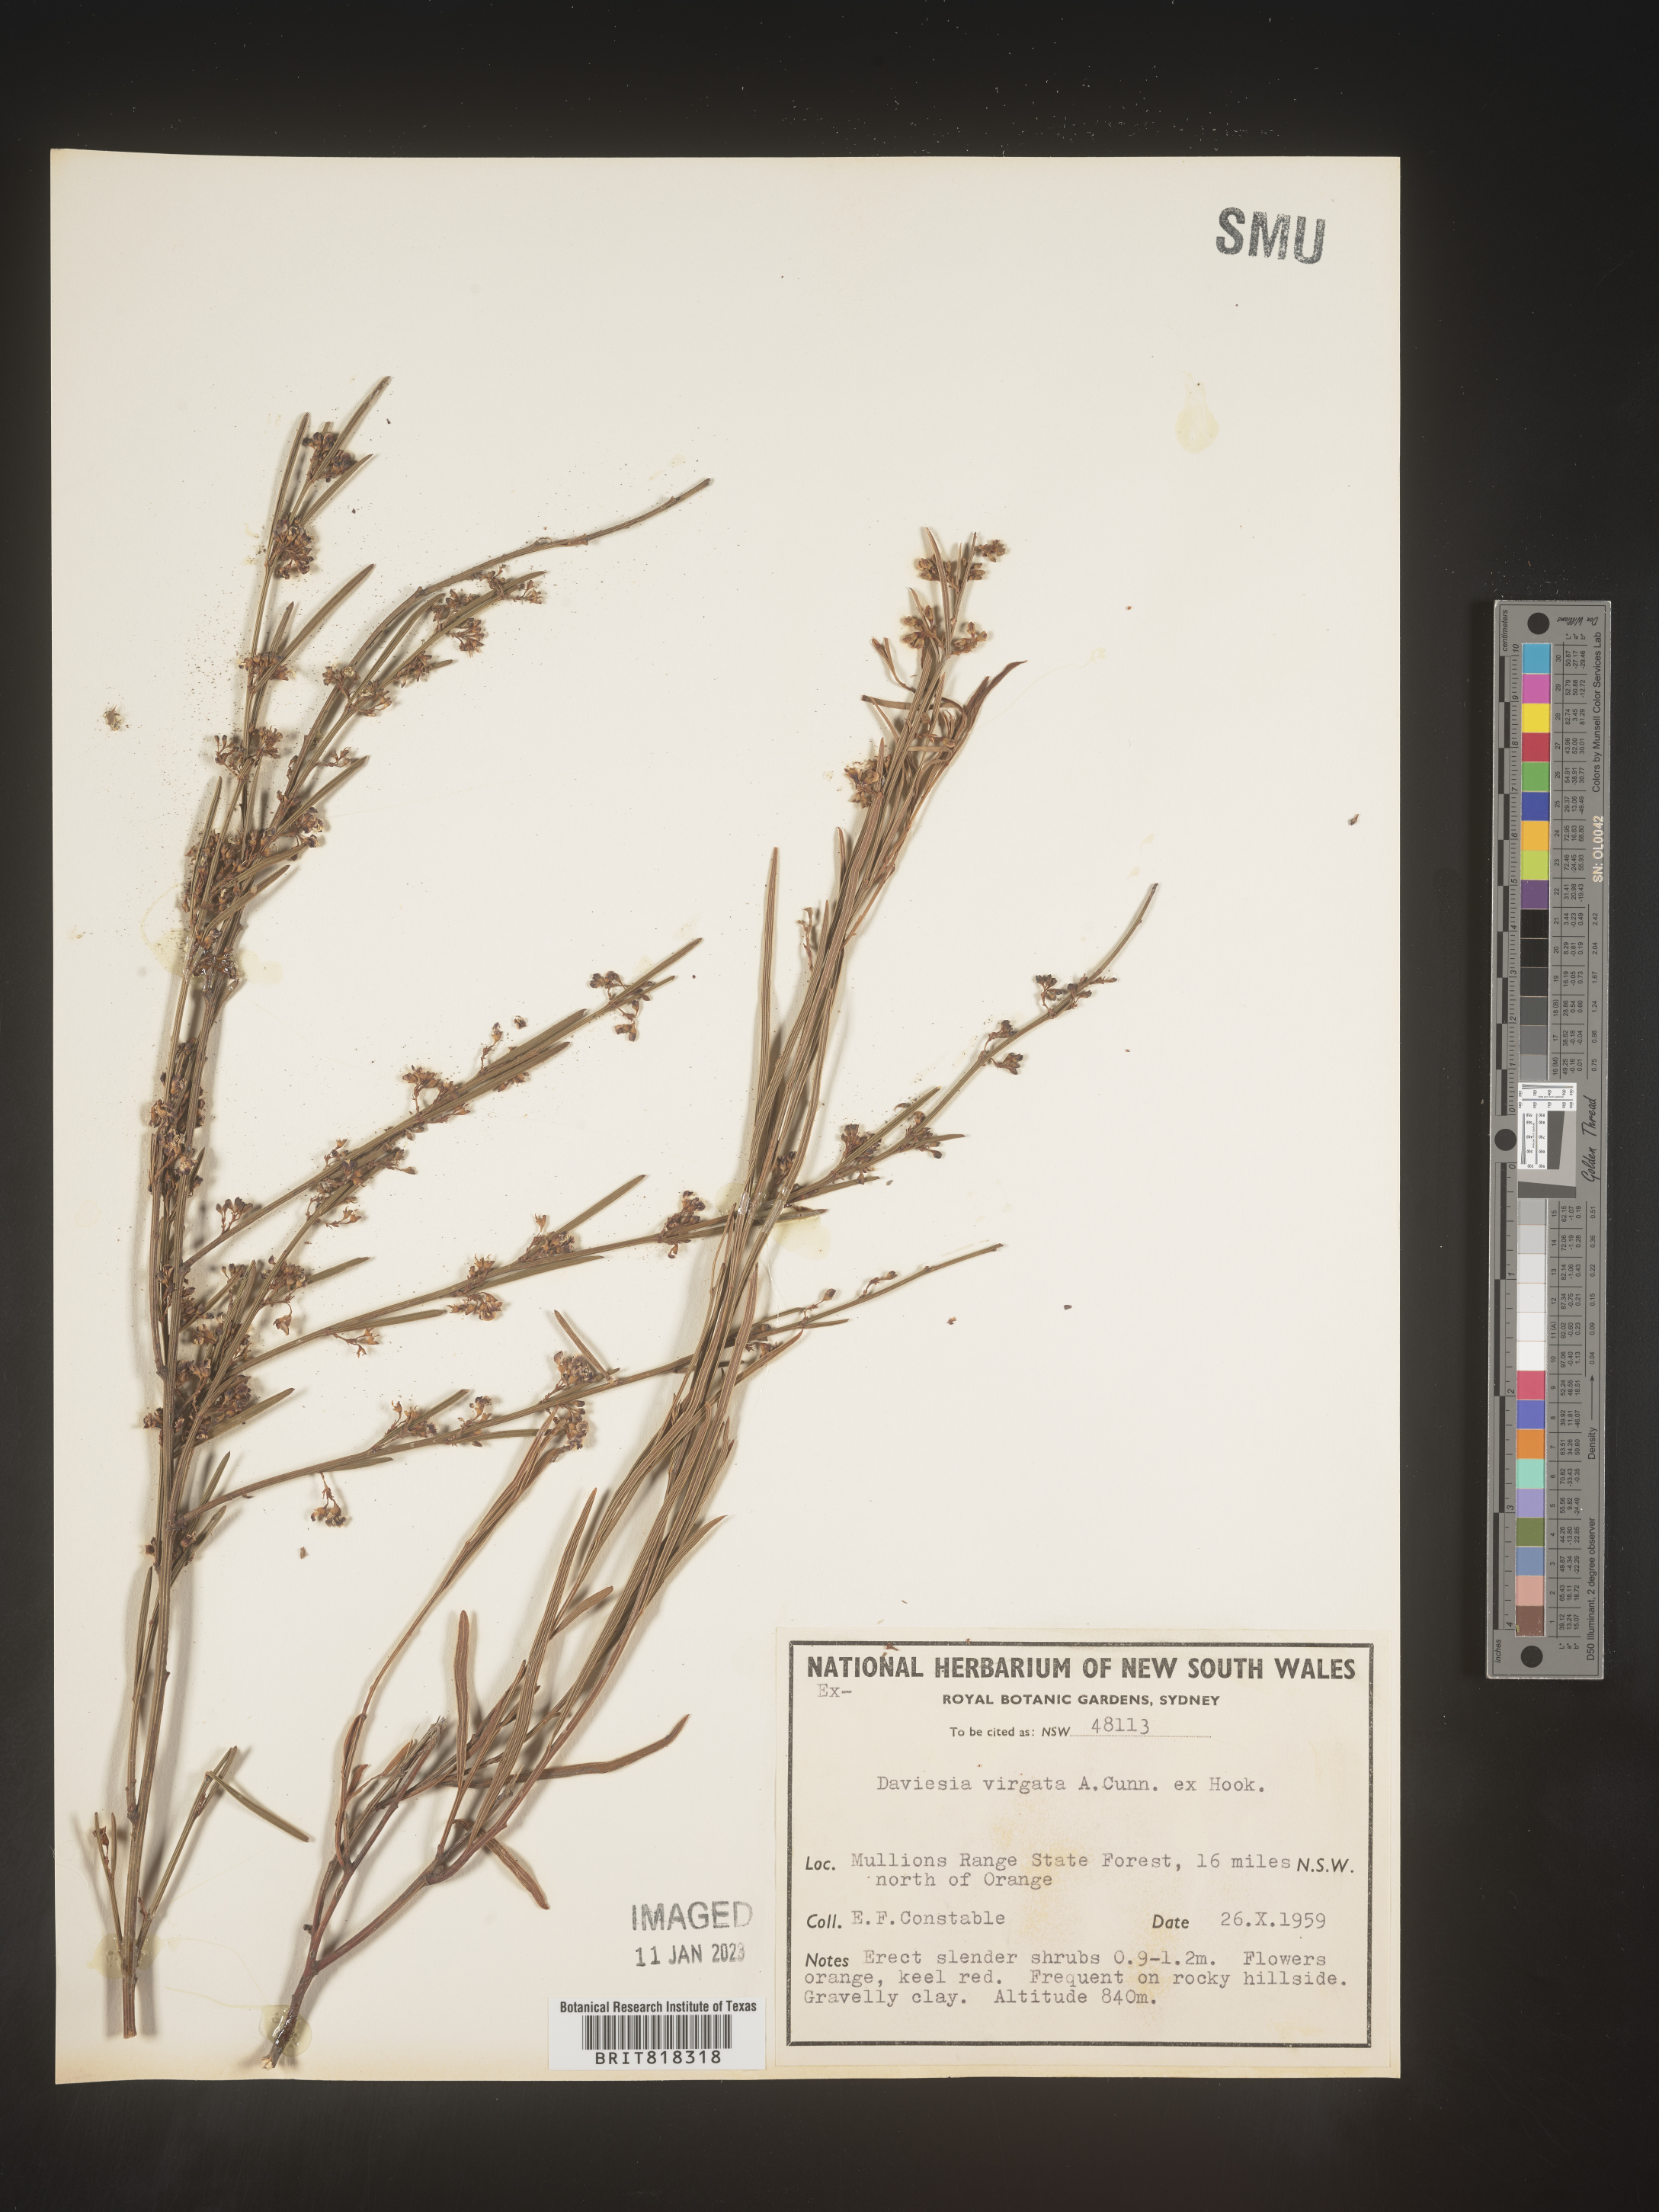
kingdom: Plantae
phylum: Tracheophyta
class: Magnoliopsida
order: Fabales
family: Fabaceae
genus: Daviesia
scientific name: Daviesia
